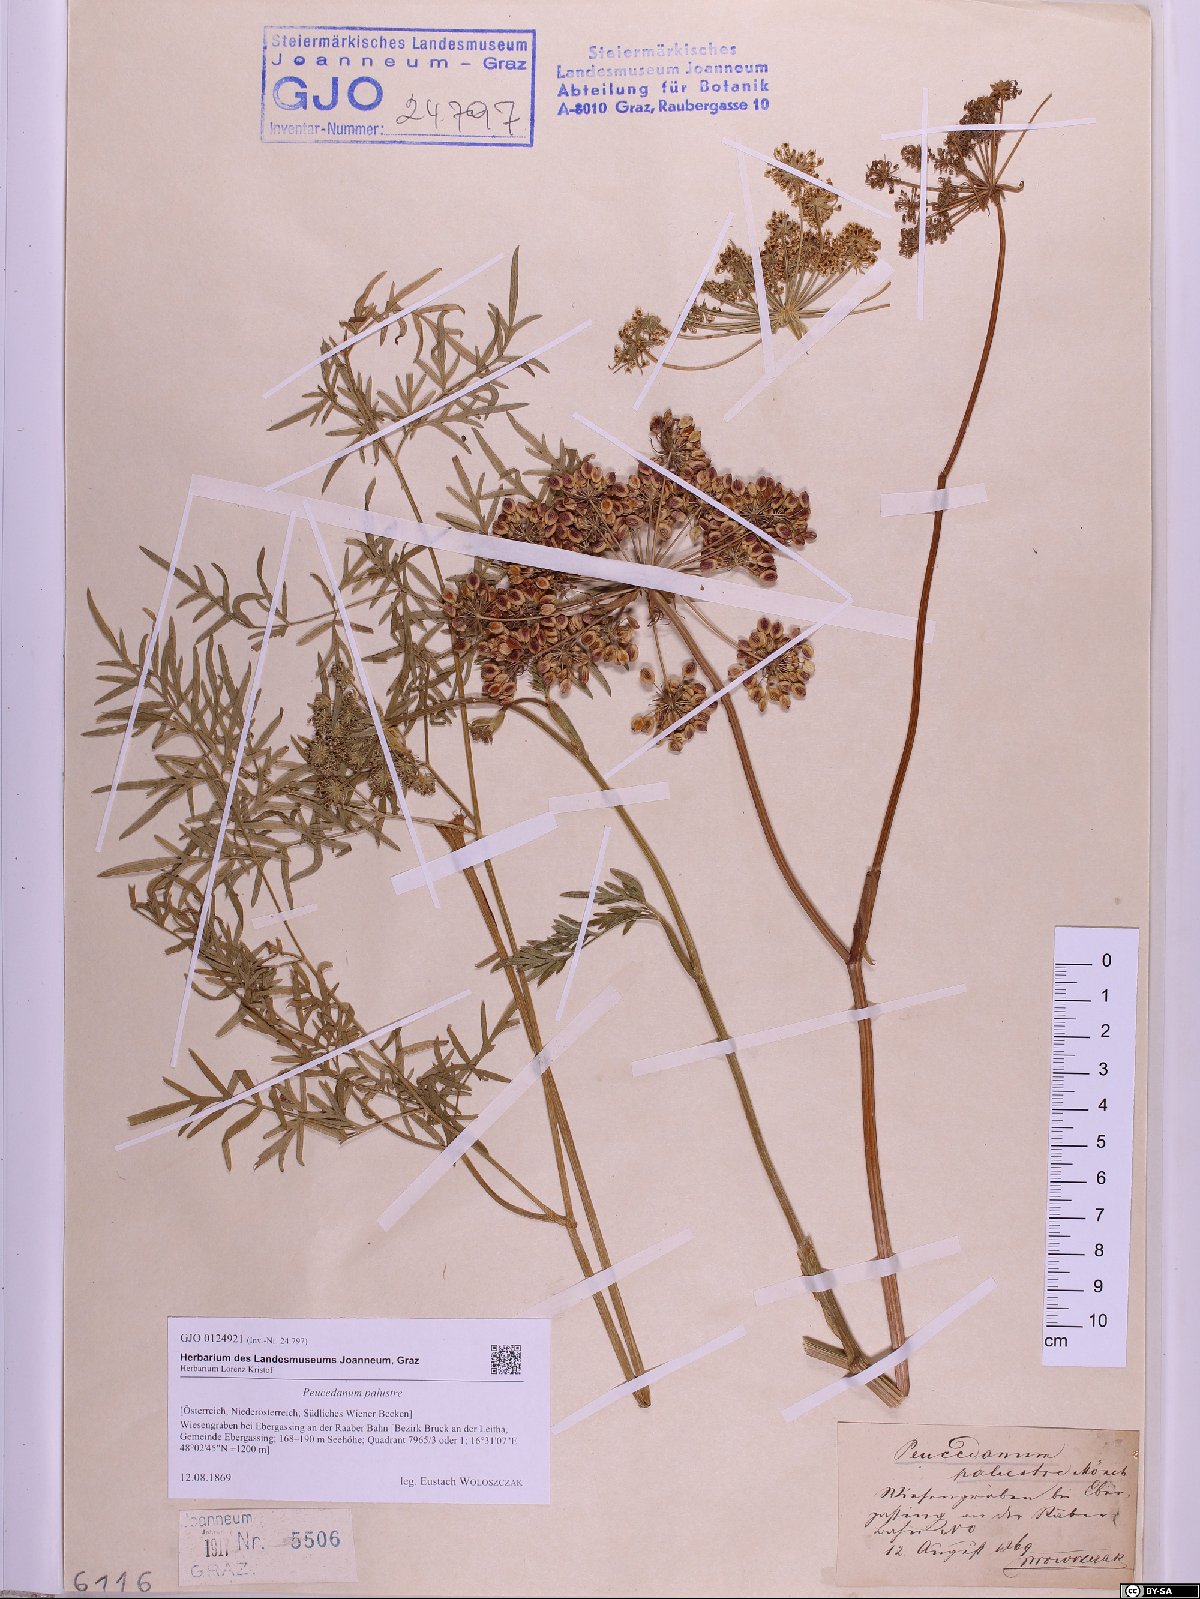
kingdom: Plantae
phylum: Tracheophyta
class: Magnoliopsida
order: Apiales
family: Apiaceae
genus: Thysselinum
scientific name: Thysselinum palustre
